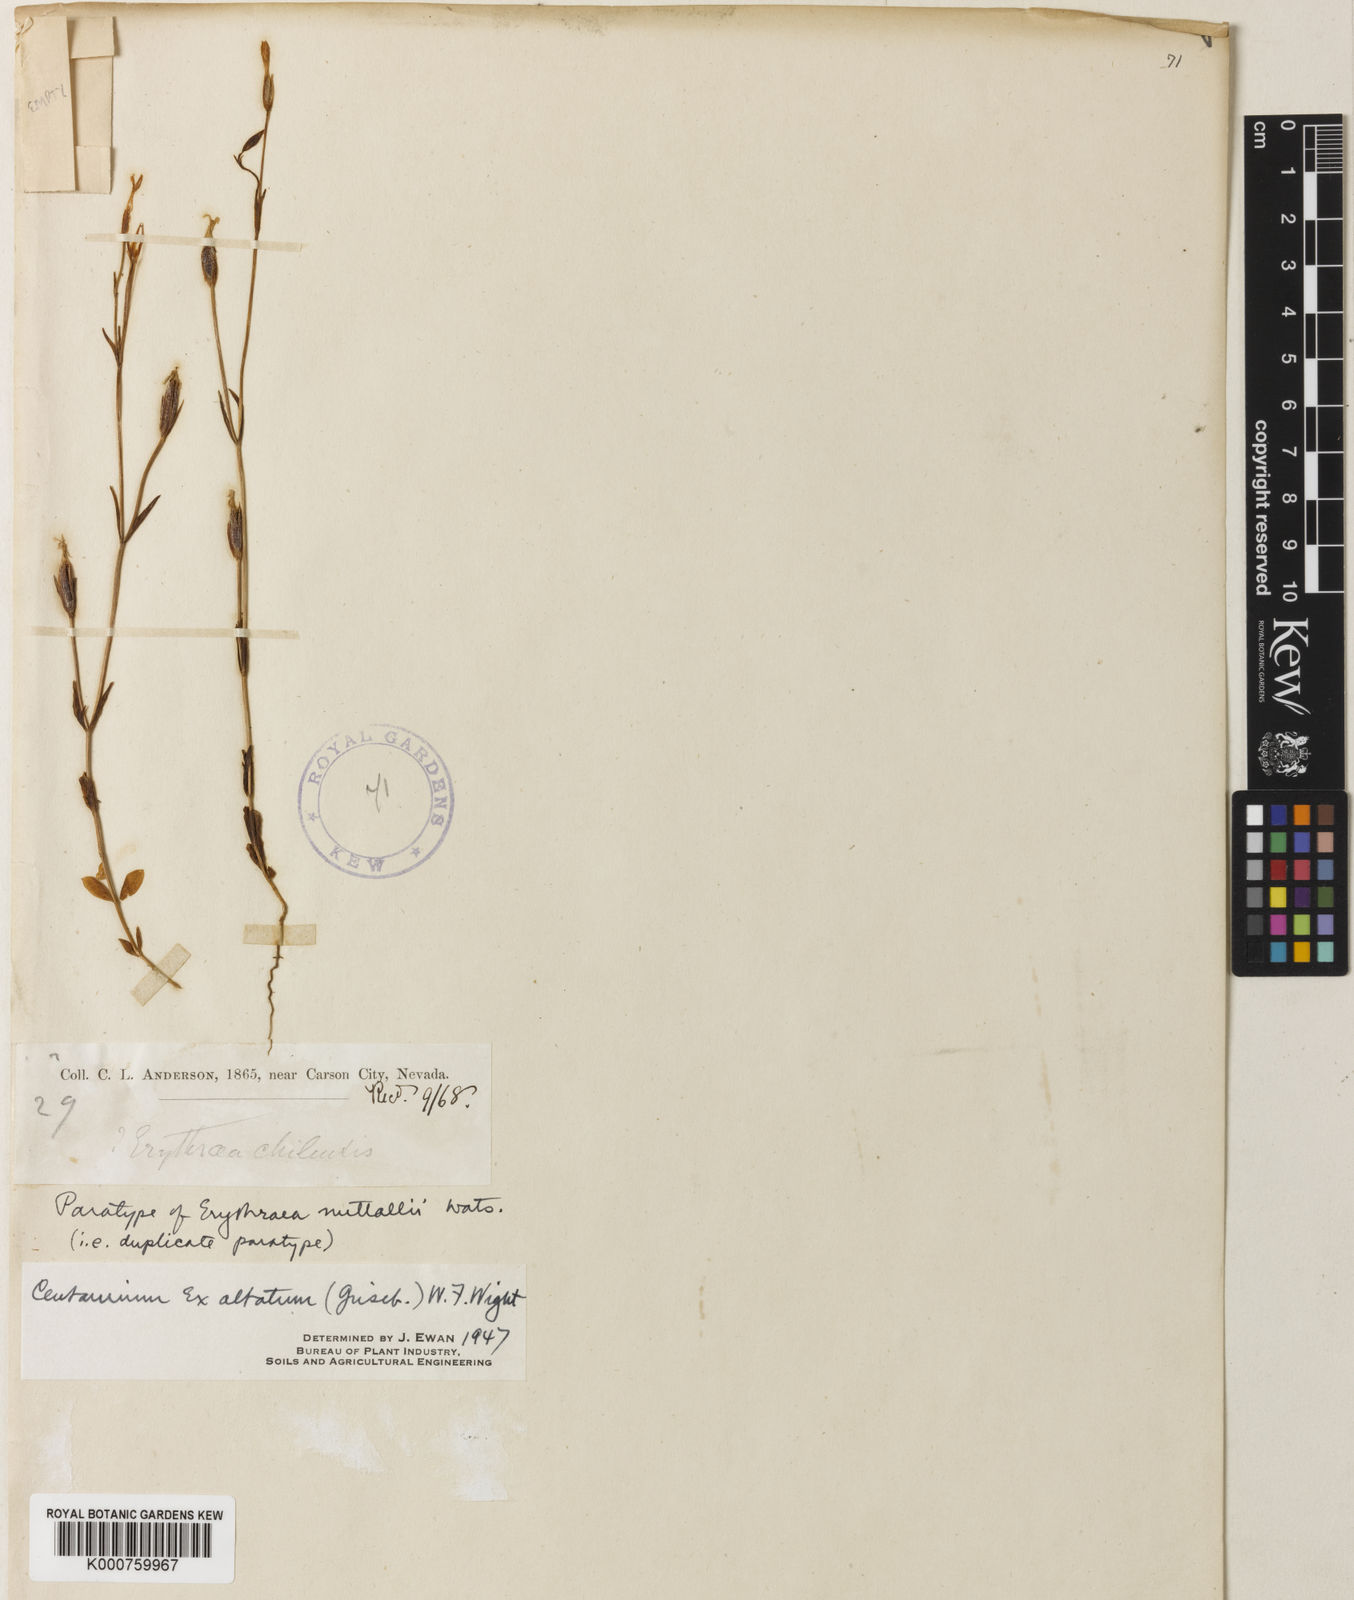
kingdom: Plantae
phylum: Tracheophyta
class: Magnoliopsida
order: Gentianales
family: Gentianaceae
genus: Centaurium
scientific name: Centaurium
